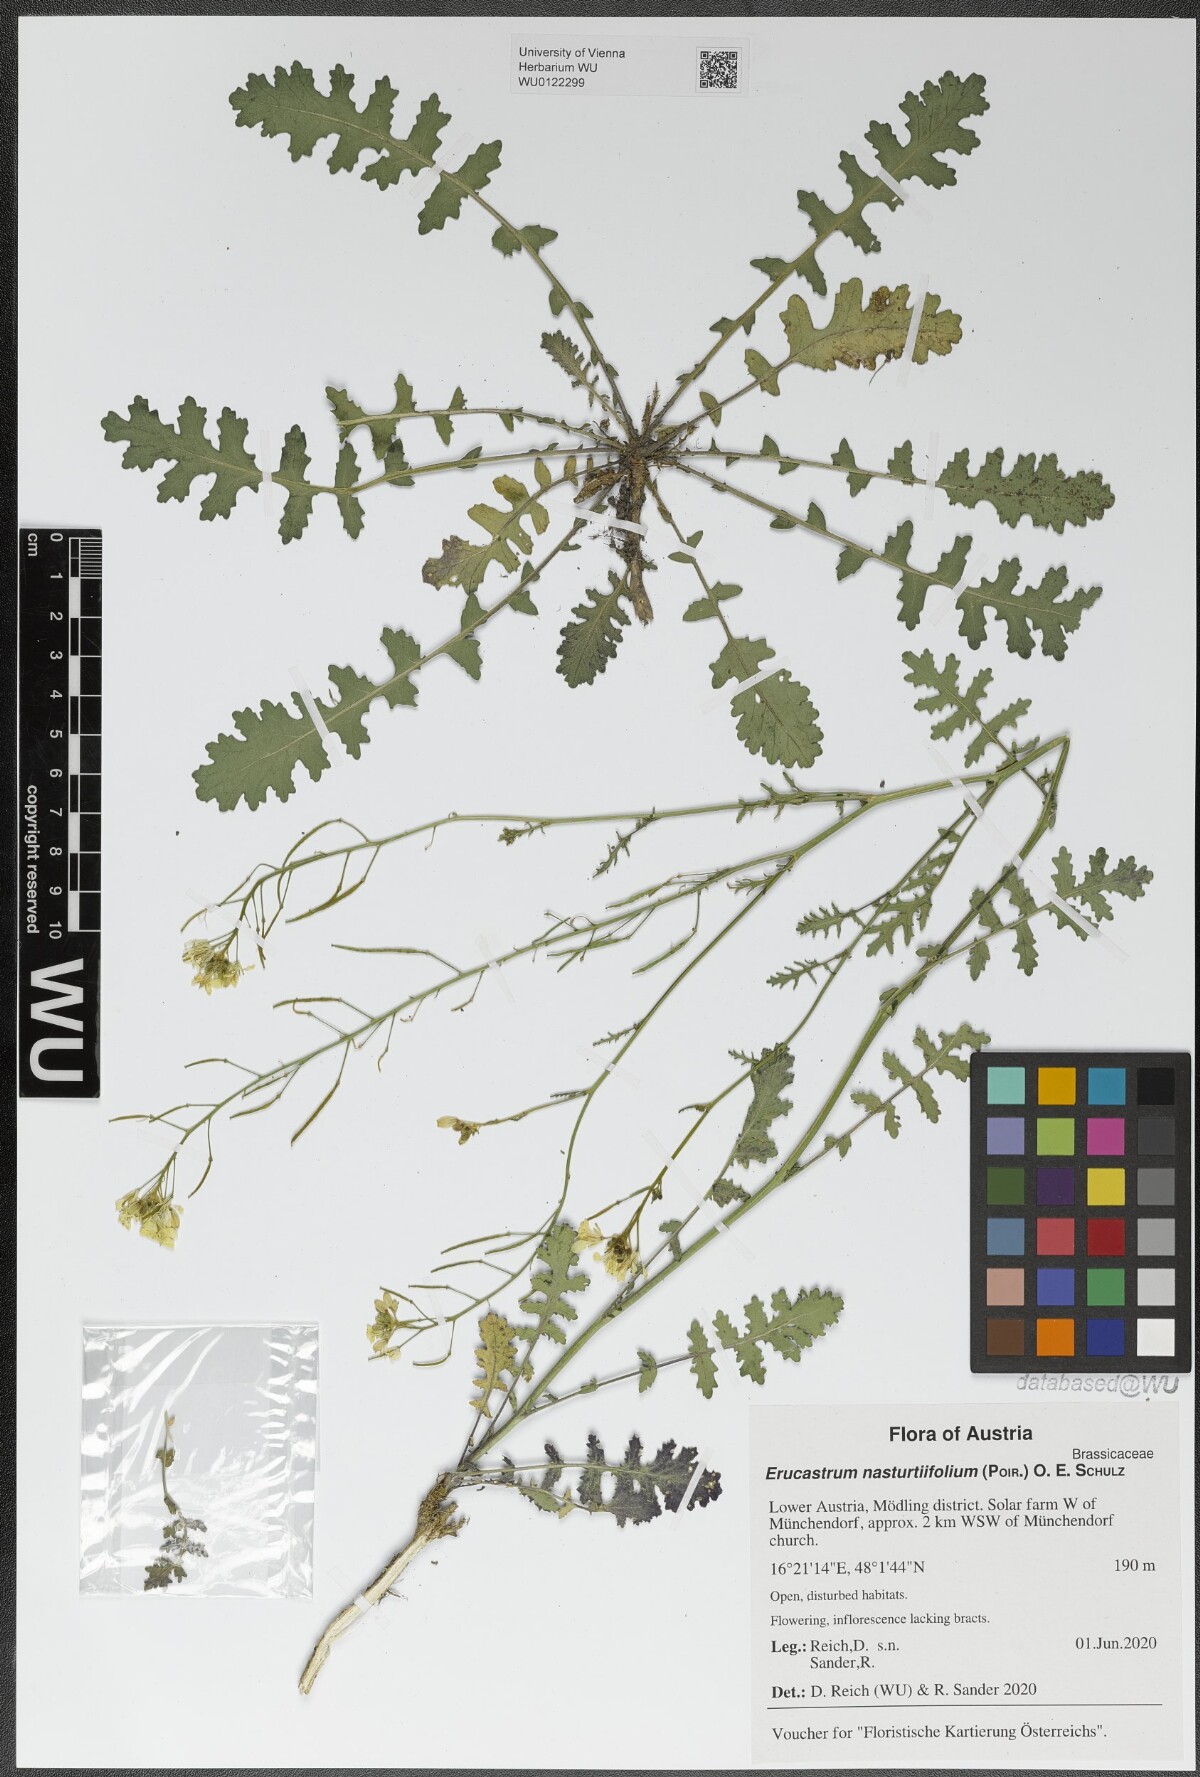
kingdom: Plantae
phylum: Tracheophyta
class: Magnoliopsida
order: Brassicales
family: Brassicaceae
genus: Erucastrum
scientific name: Erucastrum nasturtiifolium
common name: Watercress-leaf rocket
